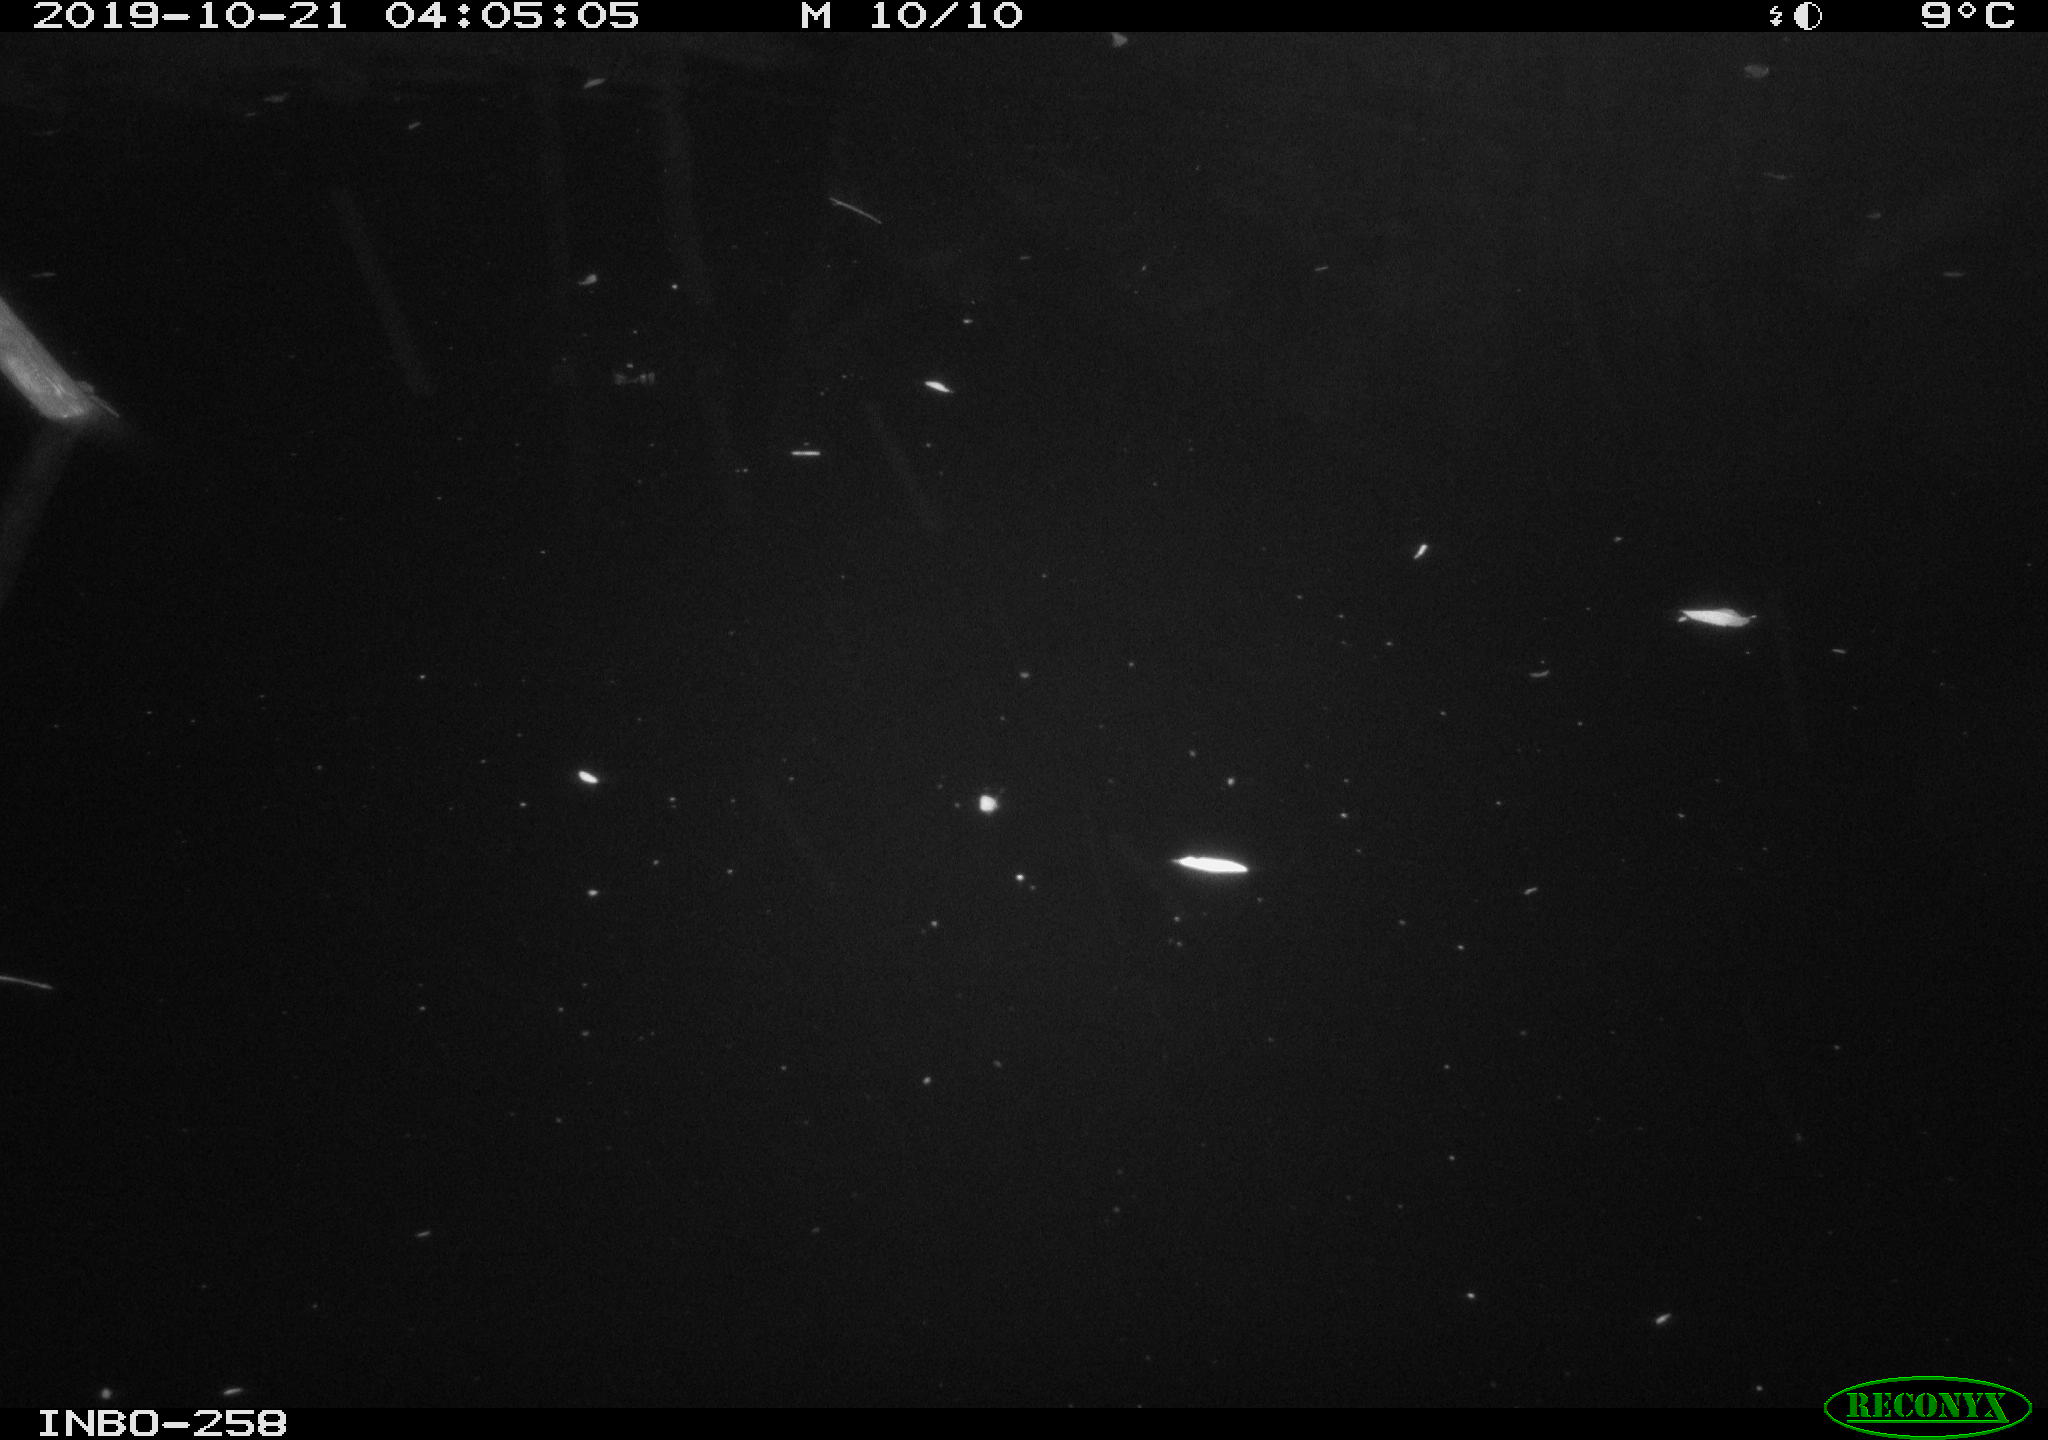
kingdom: Animalia
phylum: Chordata
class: Aves
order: Anseriformes
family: Anatidae
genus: Anas
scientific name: Anas platyrhynchos
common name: Mallard
